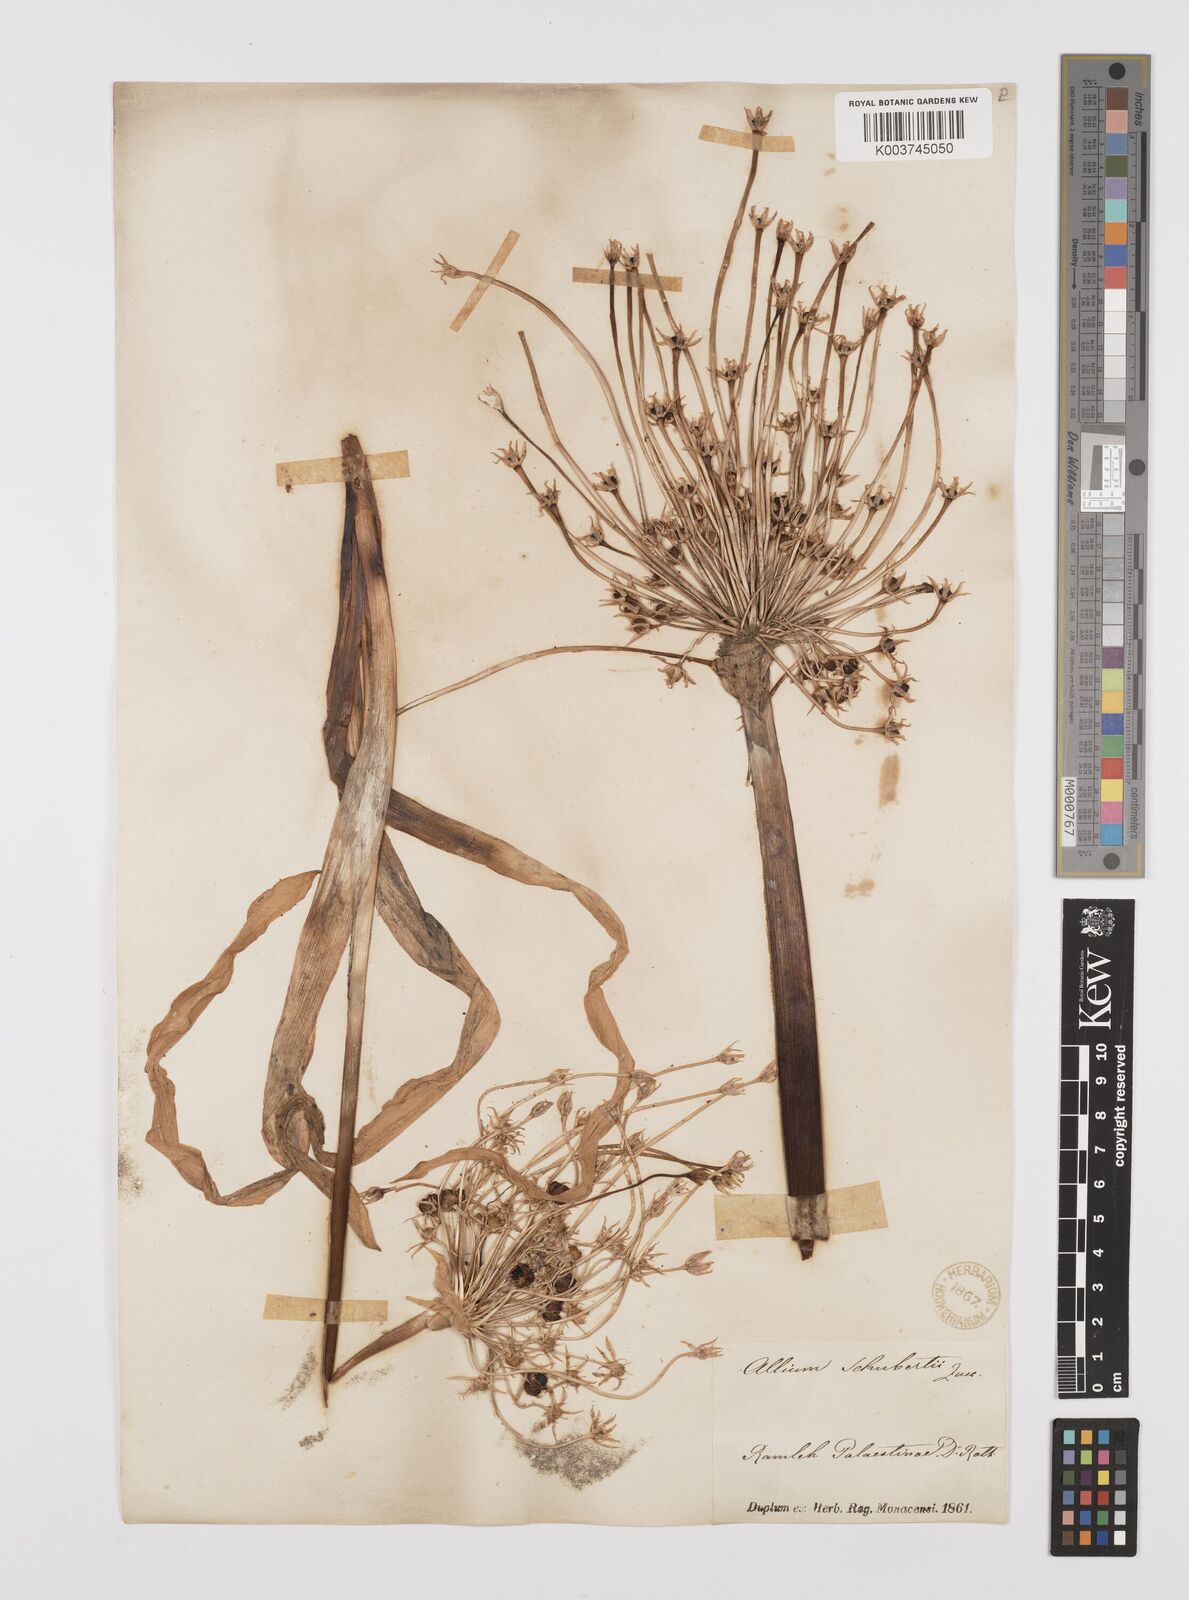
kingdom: Plantae
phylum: Tracheophyta
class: Liliopsida
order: Asparagales
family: Amaryllidaceae
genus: Allium
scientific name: Allium schubertii
